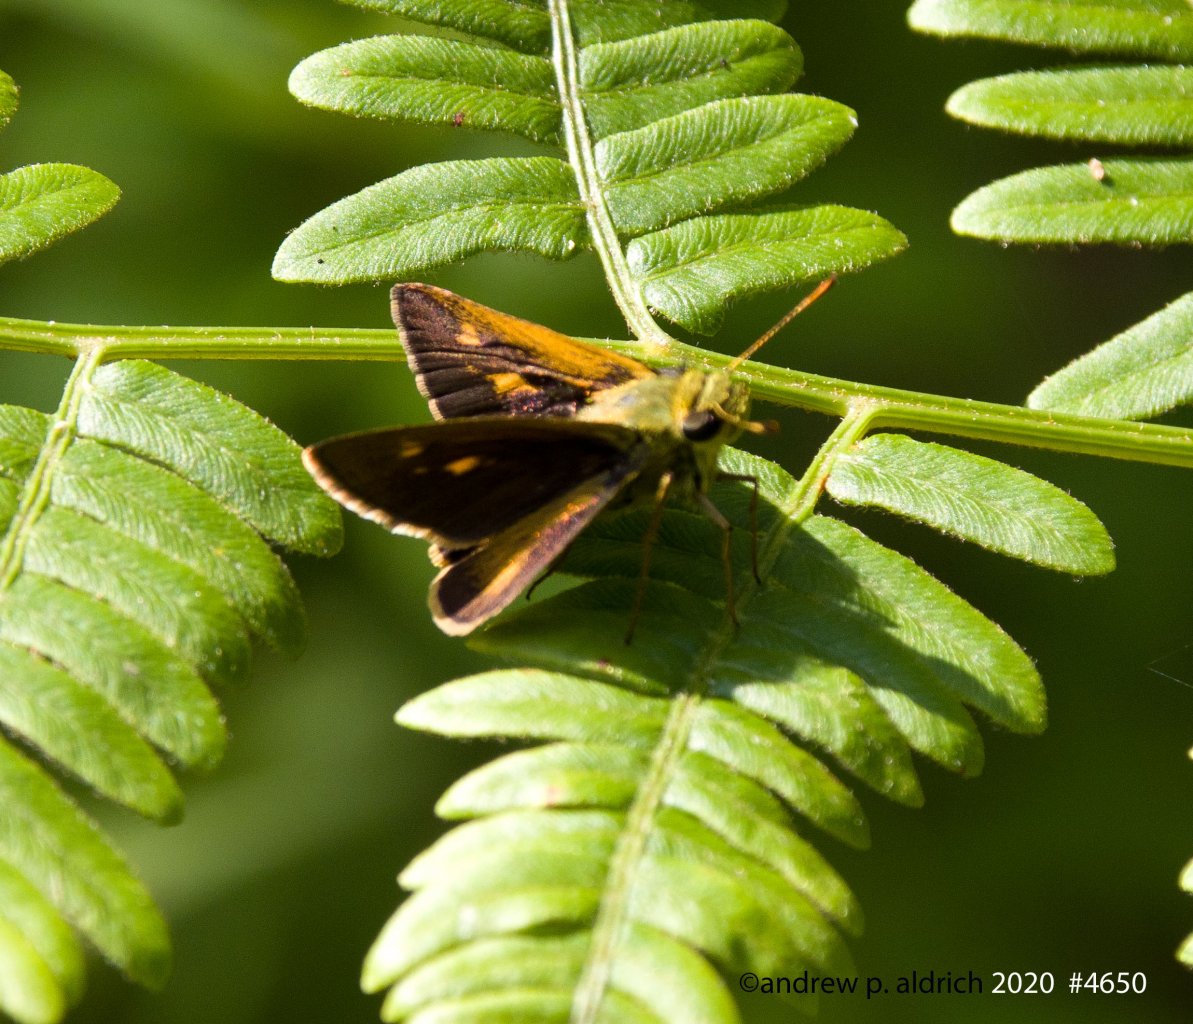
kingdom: Animalia
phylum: Arthropoda
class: Insecta
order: Lepidoptera
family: Hesperiidae
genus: Polites
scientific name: Polites egeremet
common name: Northern Broken-Dash
